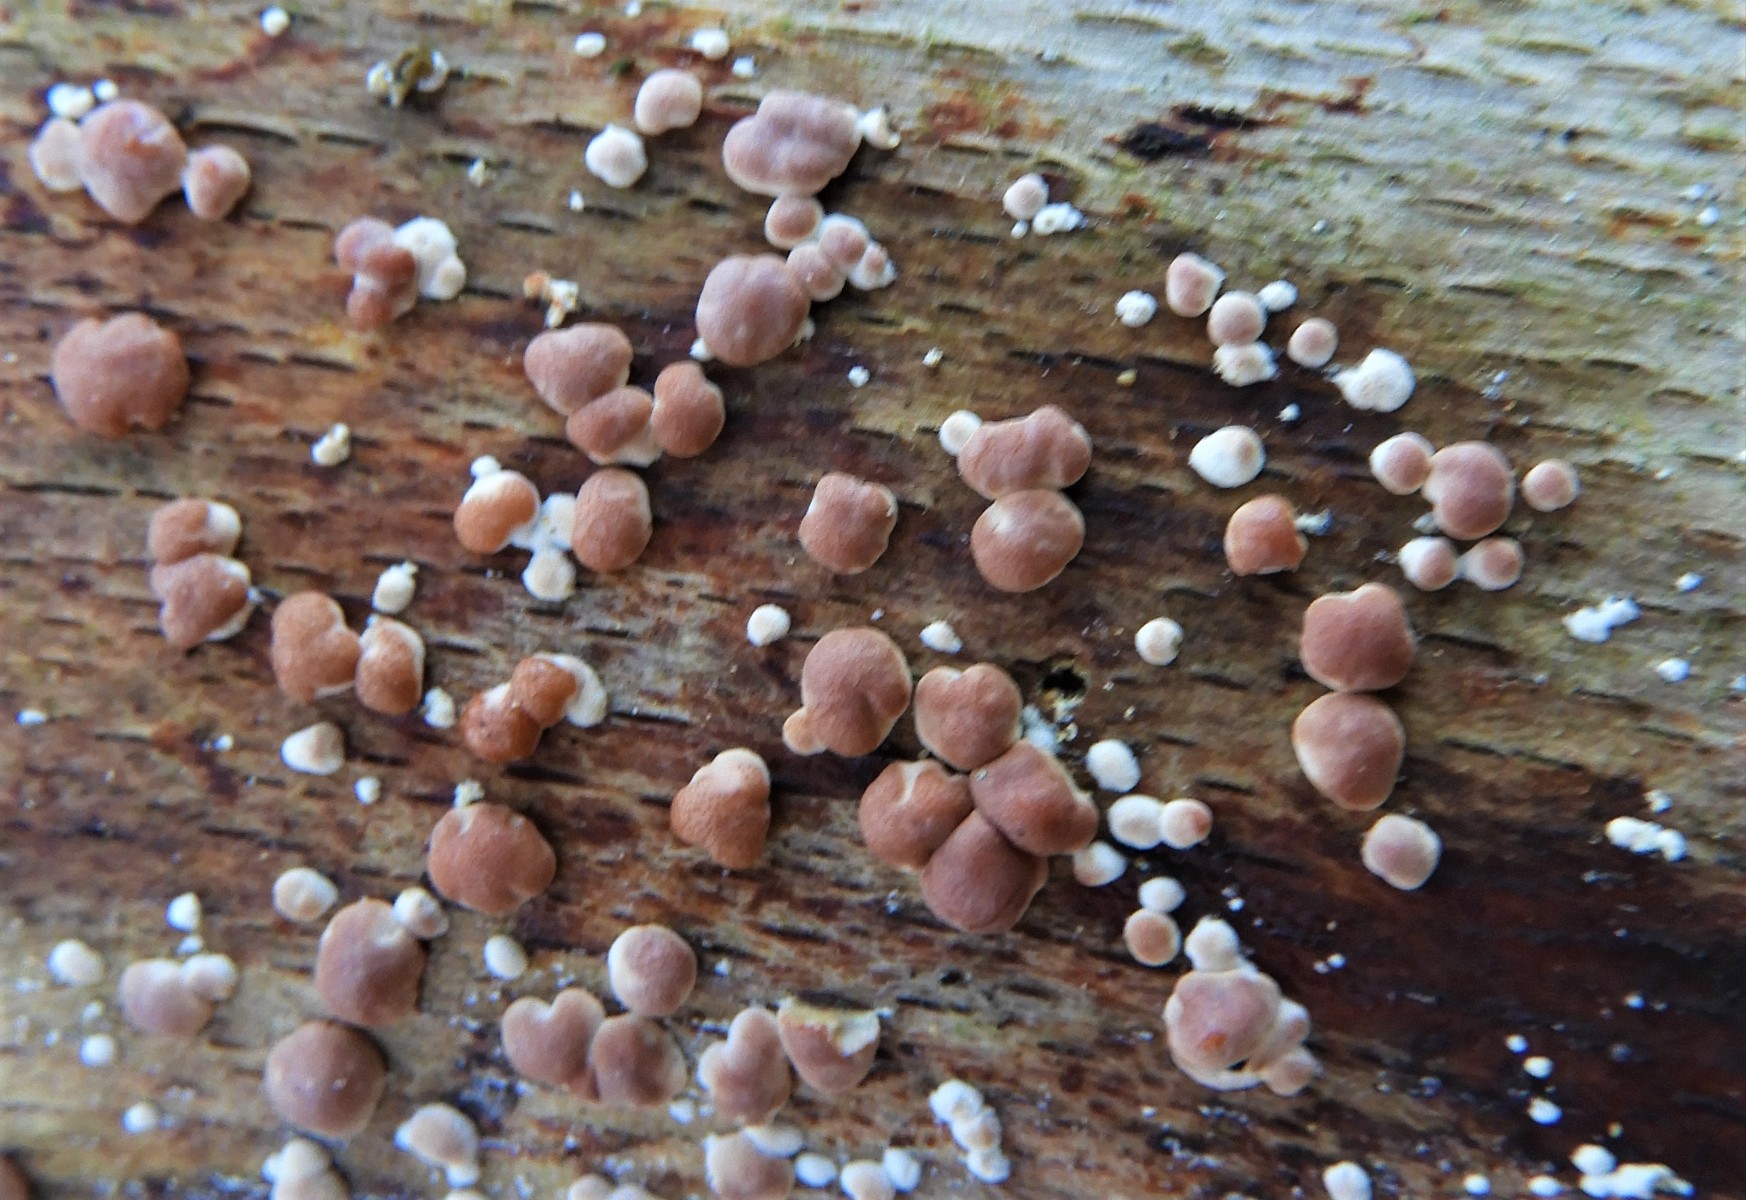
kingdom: Fungi
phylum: Ascomycota
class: Sordariomycetes
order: Hypocreales
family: Hypocreaceae
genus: Trichoderma
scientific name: Trichoderma europaeum
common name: rosabrun kødkerne
